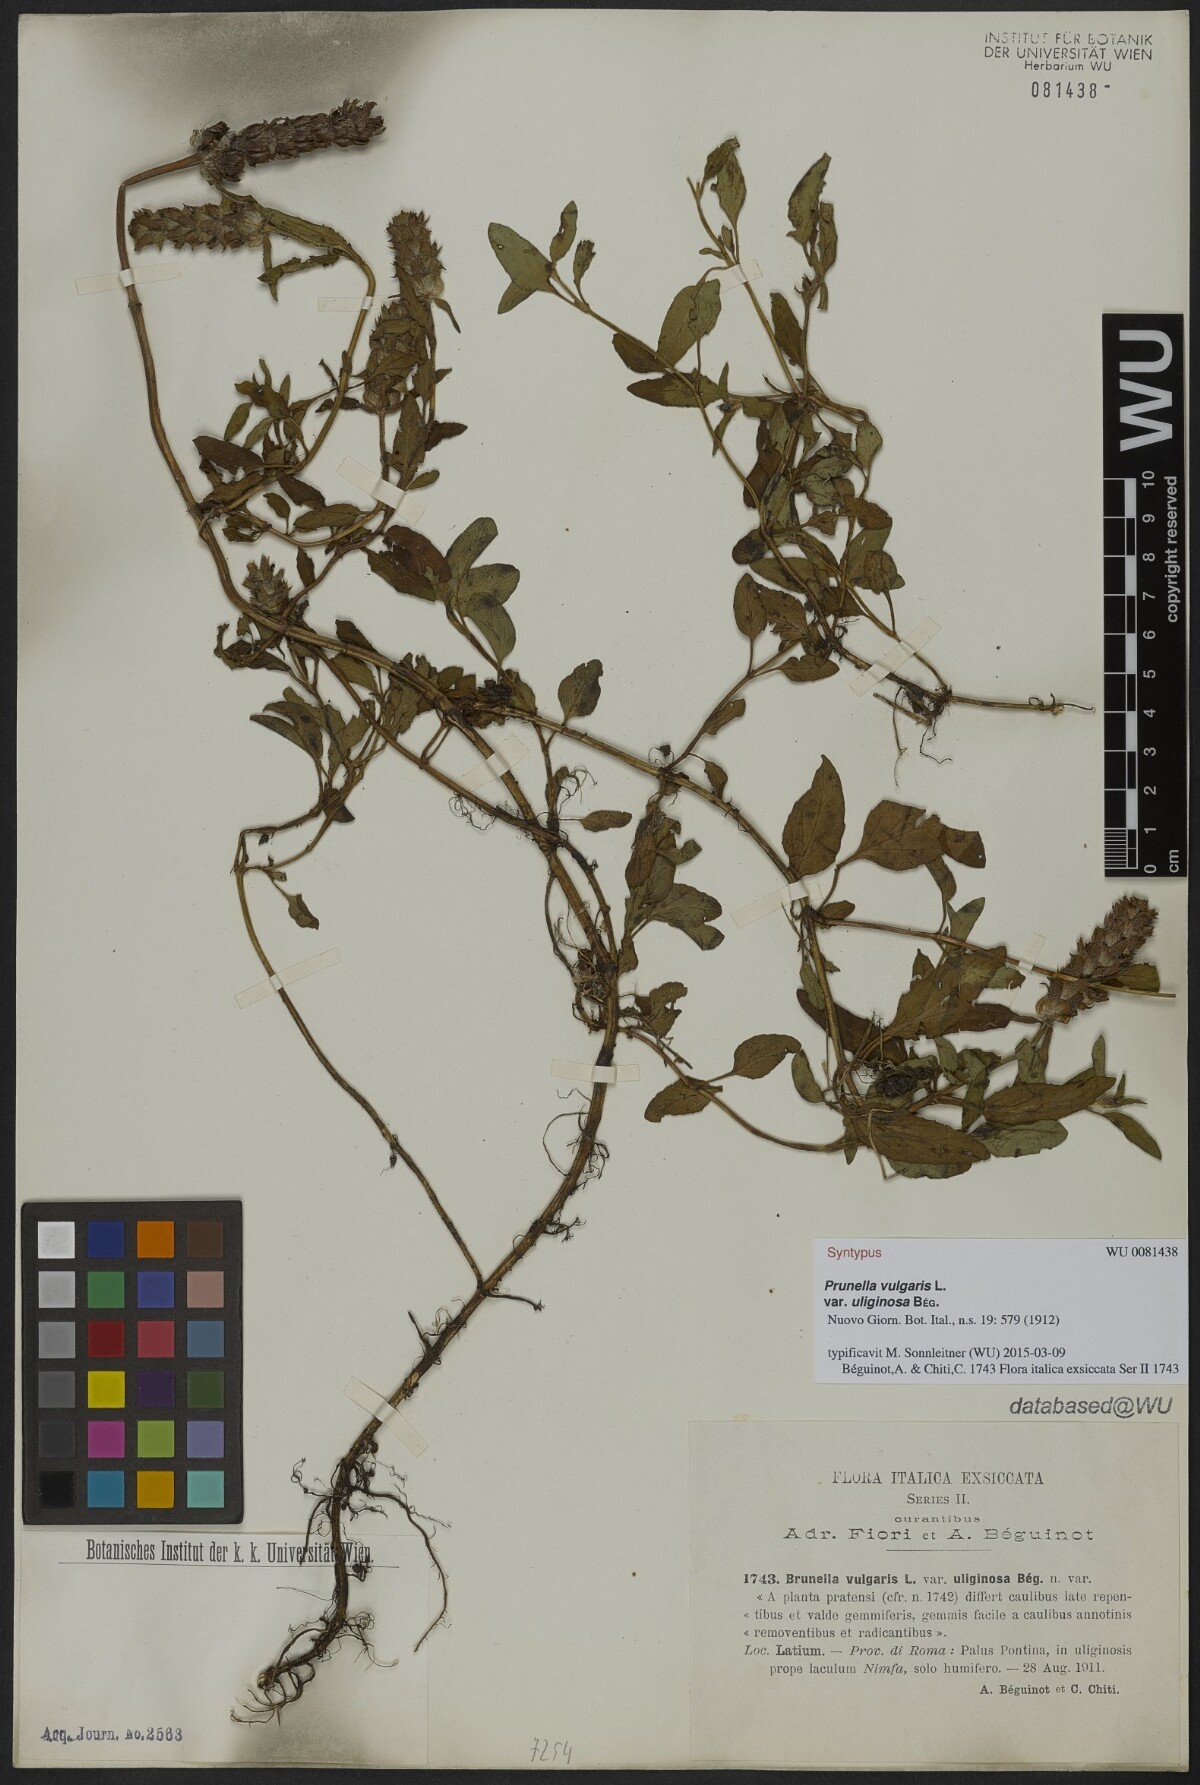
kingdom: Plantae
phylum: Tracheophyta
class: Magnoliopsida
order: Lamiales
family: Lamiaceae
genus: Prunella
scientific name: Prunella vulgaris
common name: Heal-all
